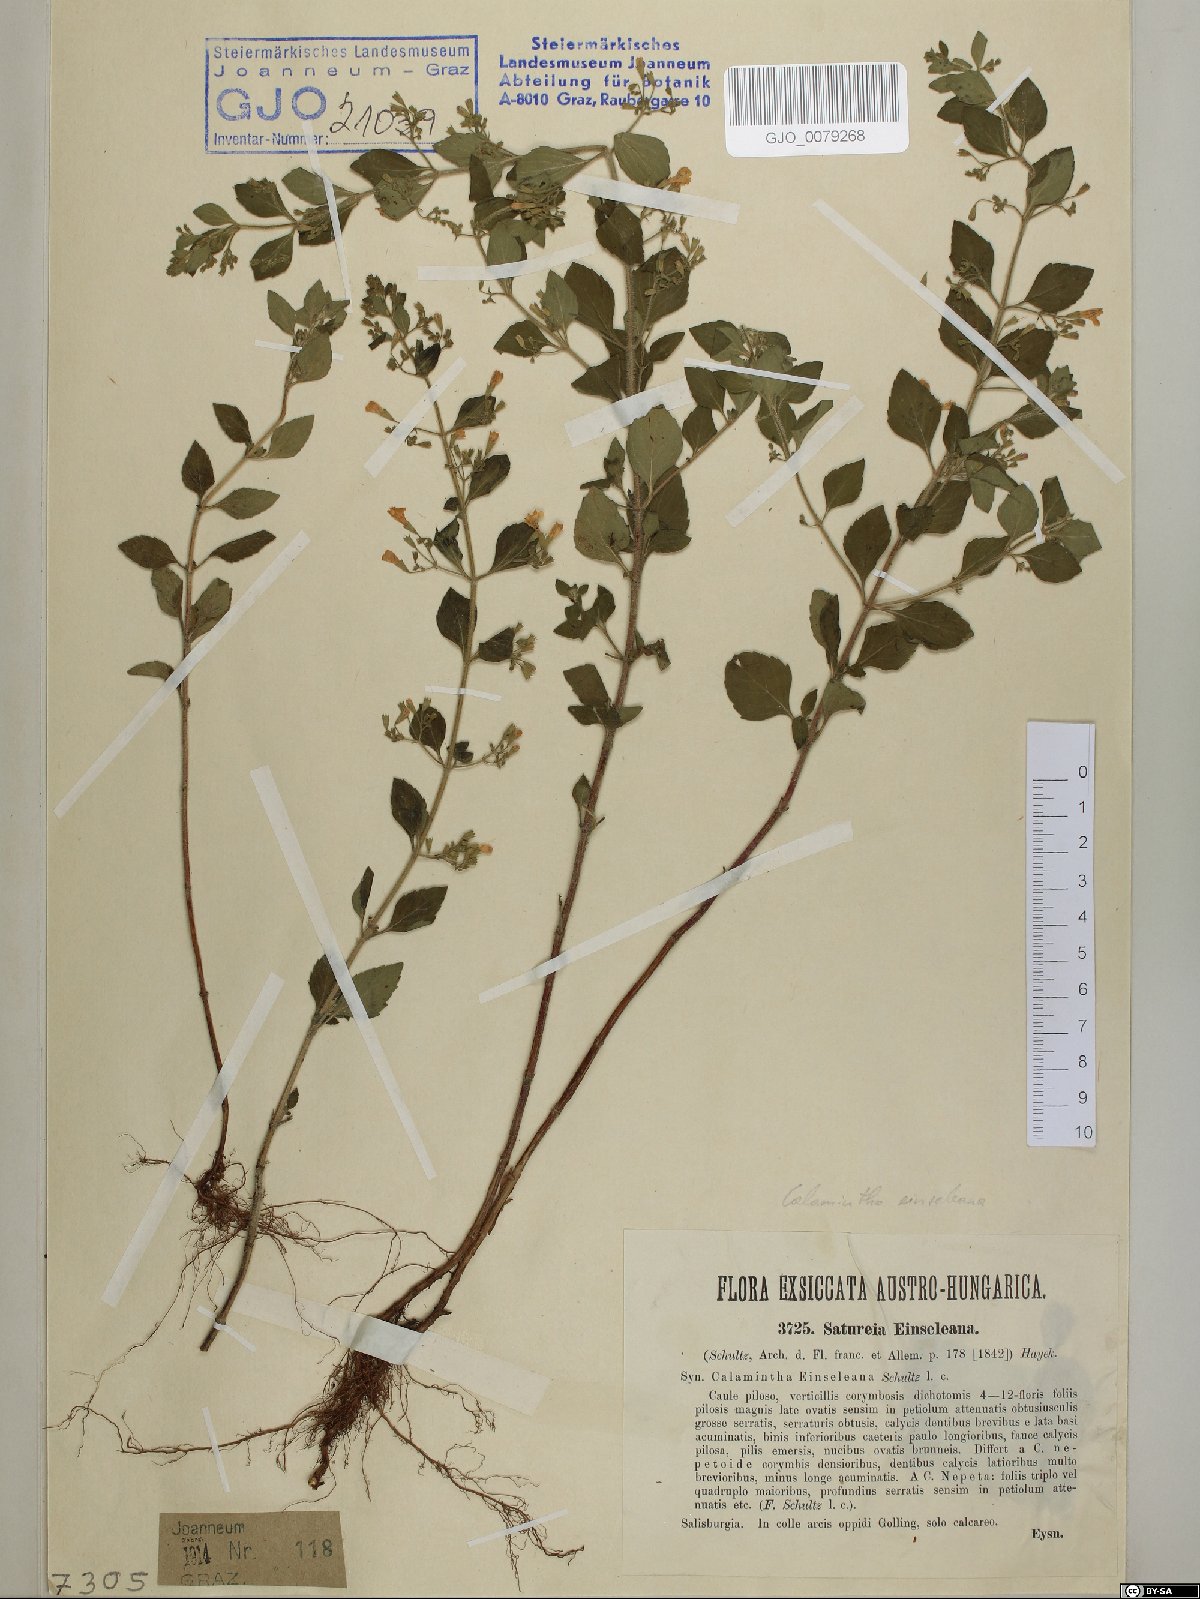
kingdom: Plantae
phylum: Tracheophyta
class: Magnoliopsida
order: Lamiales
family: Lamiaceae
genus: Clinopodium
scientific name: Clinopodium nepeta
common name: Lesser calamint
